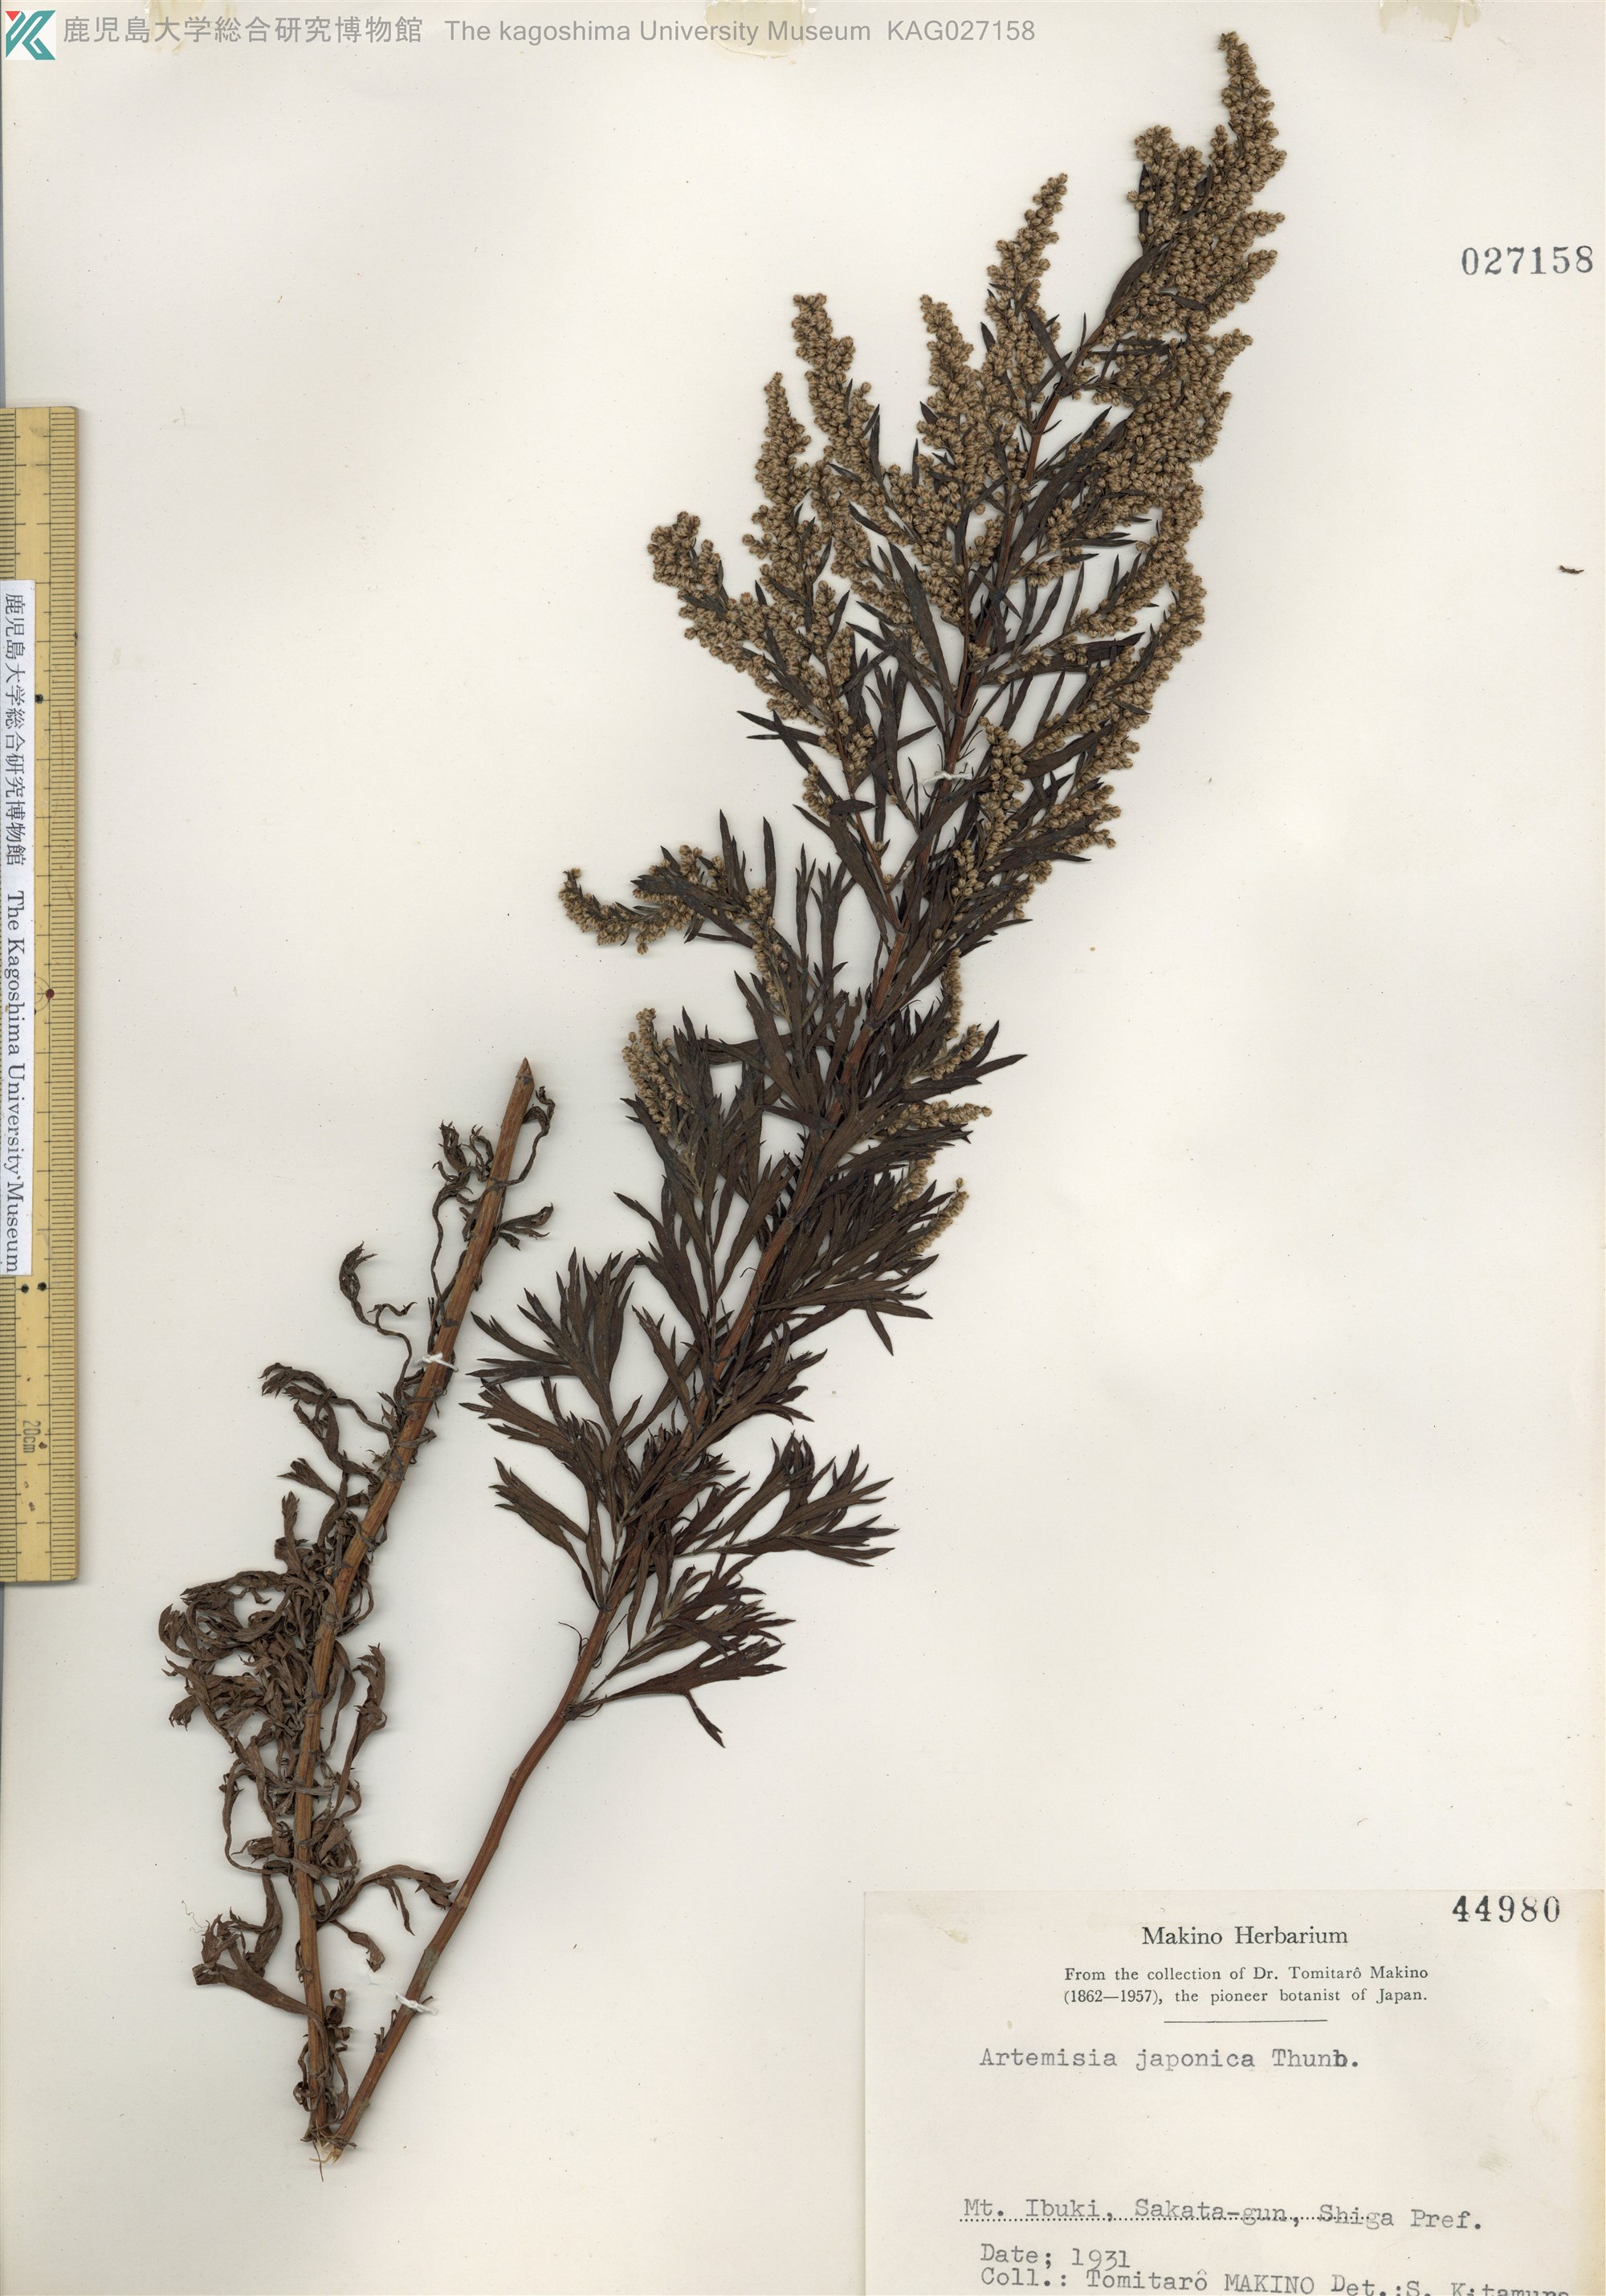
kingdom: Plantae
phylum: Tracheophyta
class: Magnoliopsida
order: Asterales
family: Asteraceae
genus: Artemisia
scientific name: Artemisia japonica
